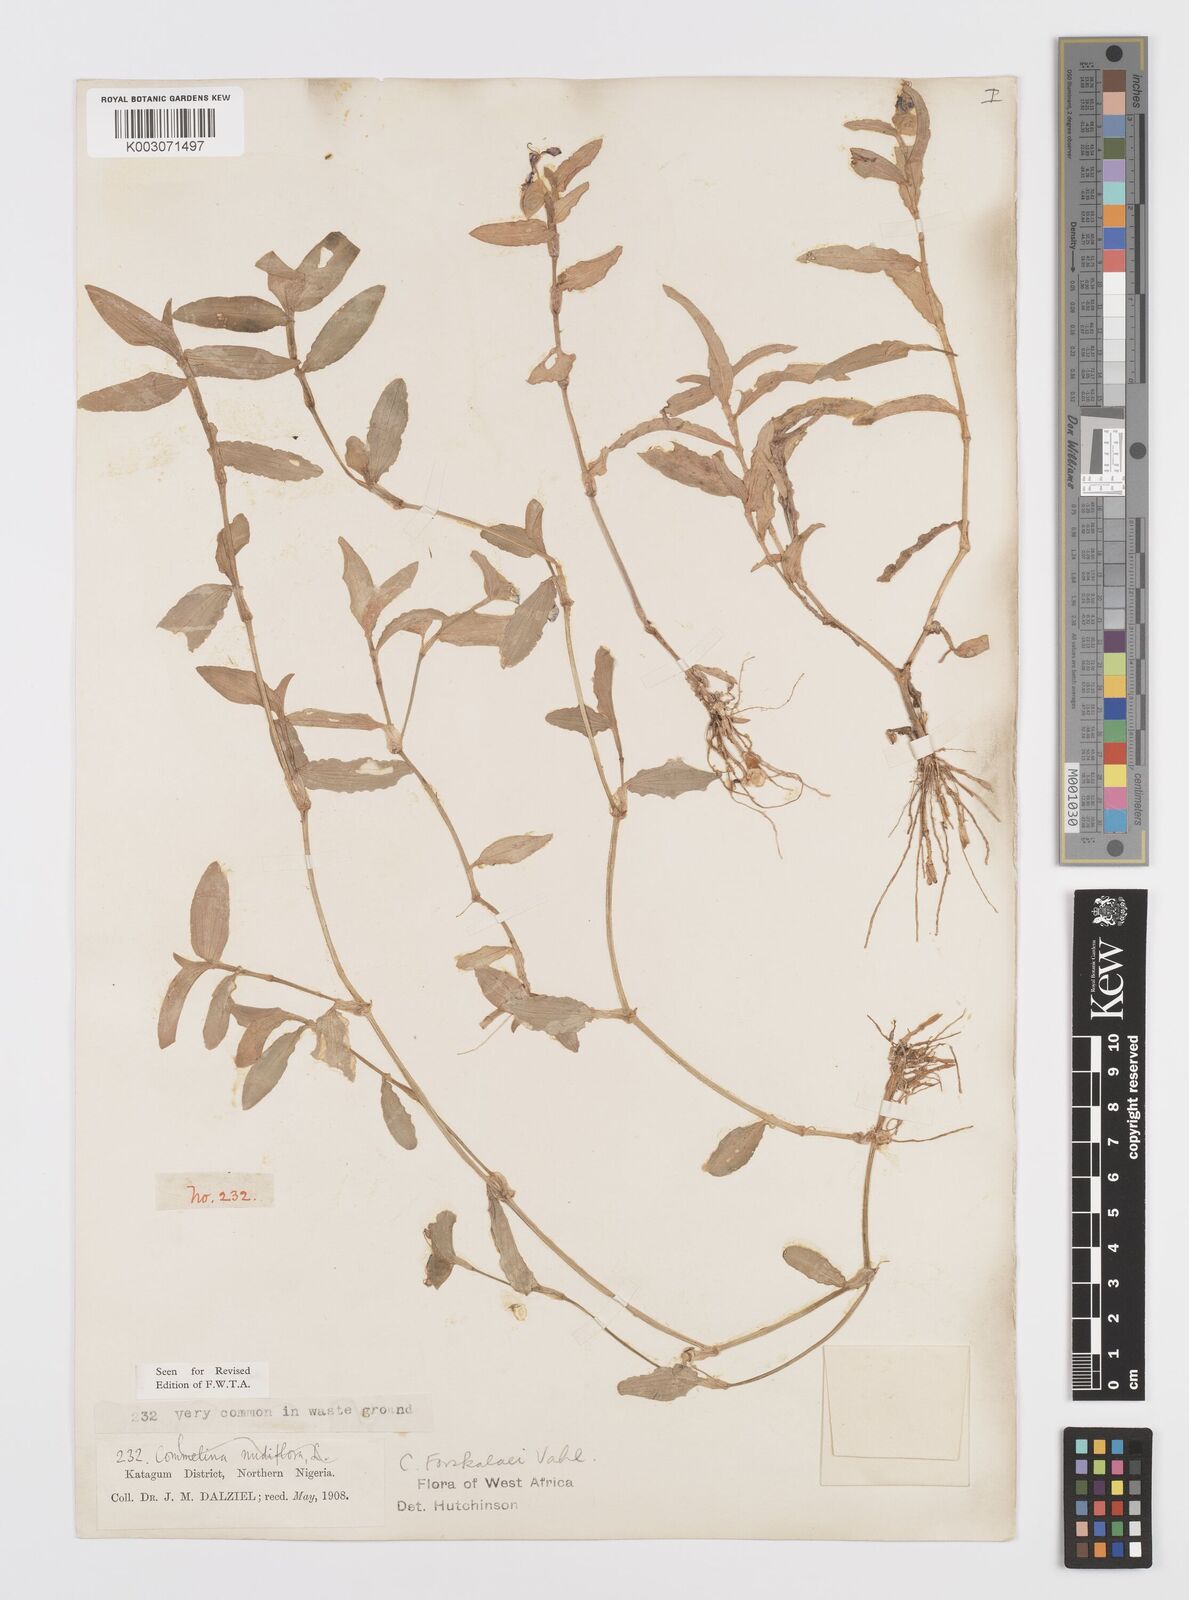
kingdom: Plantae
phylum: Tracheophyta
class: Liliopsida
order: Commelinales
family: Commelinaceae
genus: Commelina
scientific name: Commelina forskaolii
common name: Rat's ear
